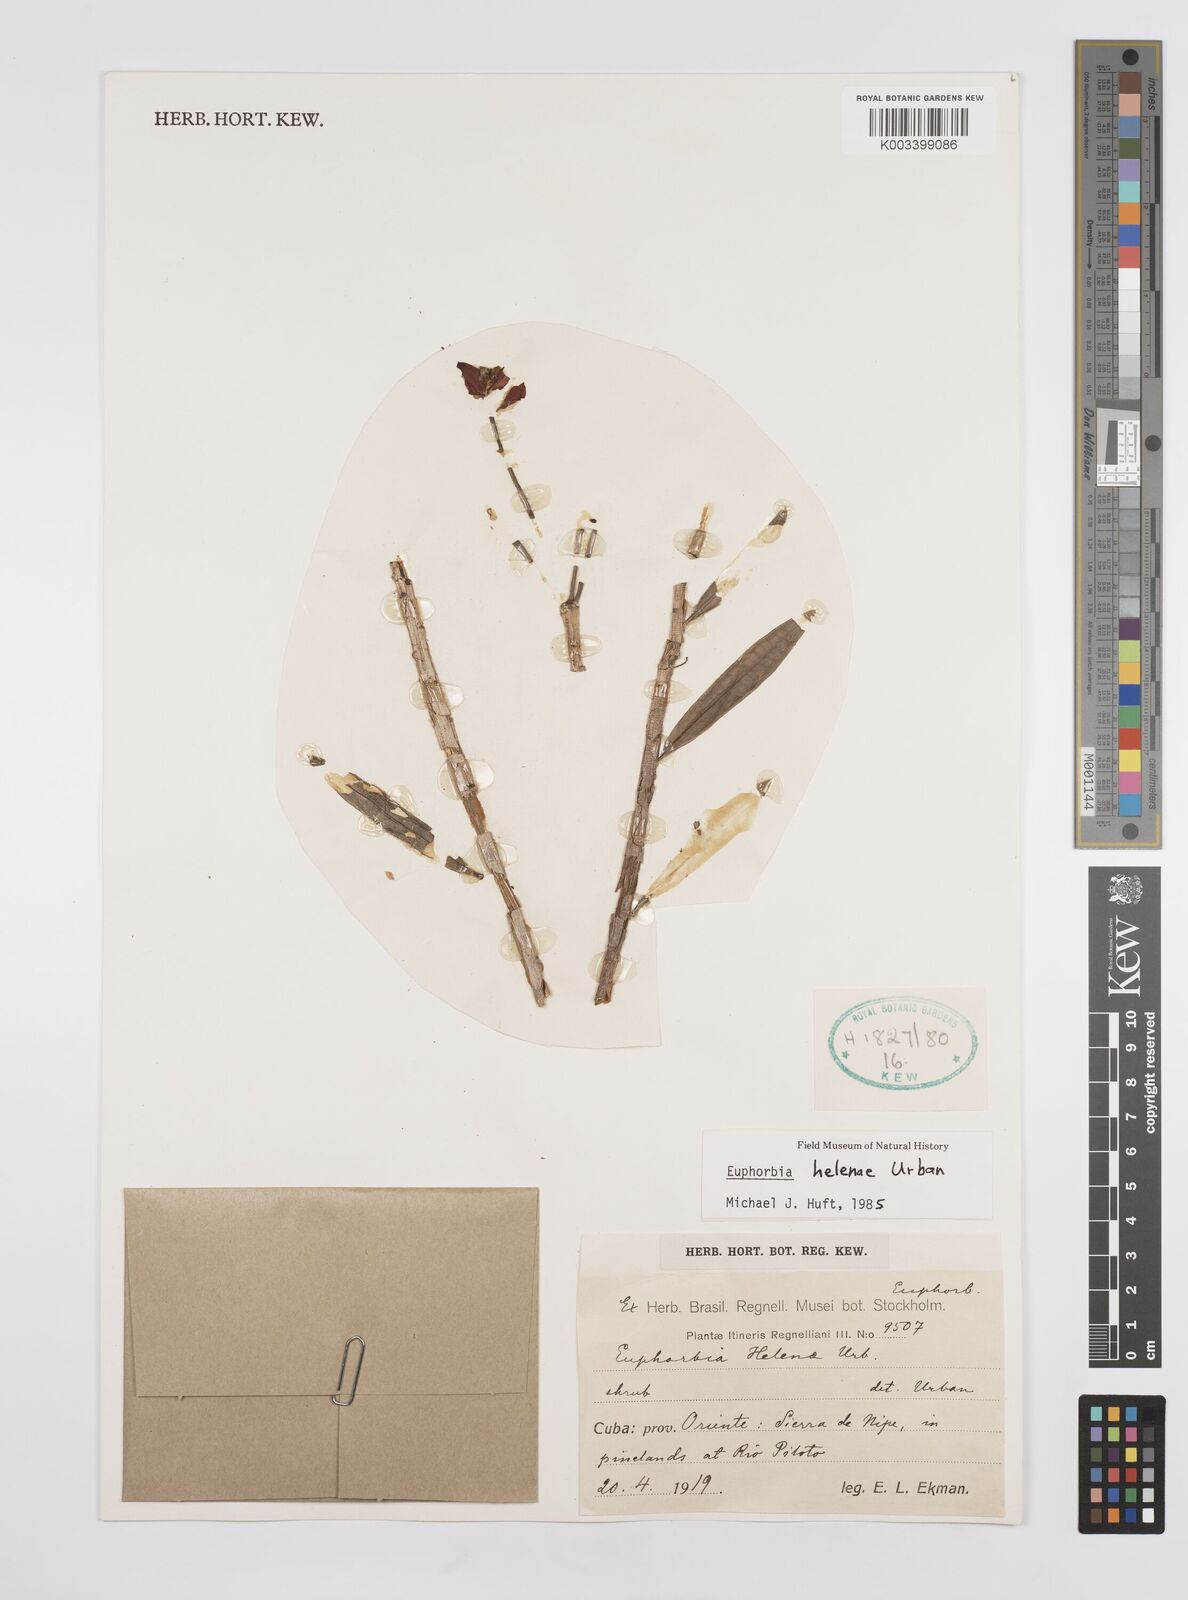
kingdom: Plantae
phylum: Tracheophyta
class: Magnoliopsida
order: Malpighiales
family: Euphorbiaceae
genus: Euphorbia
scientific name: Euphorbia helenae
